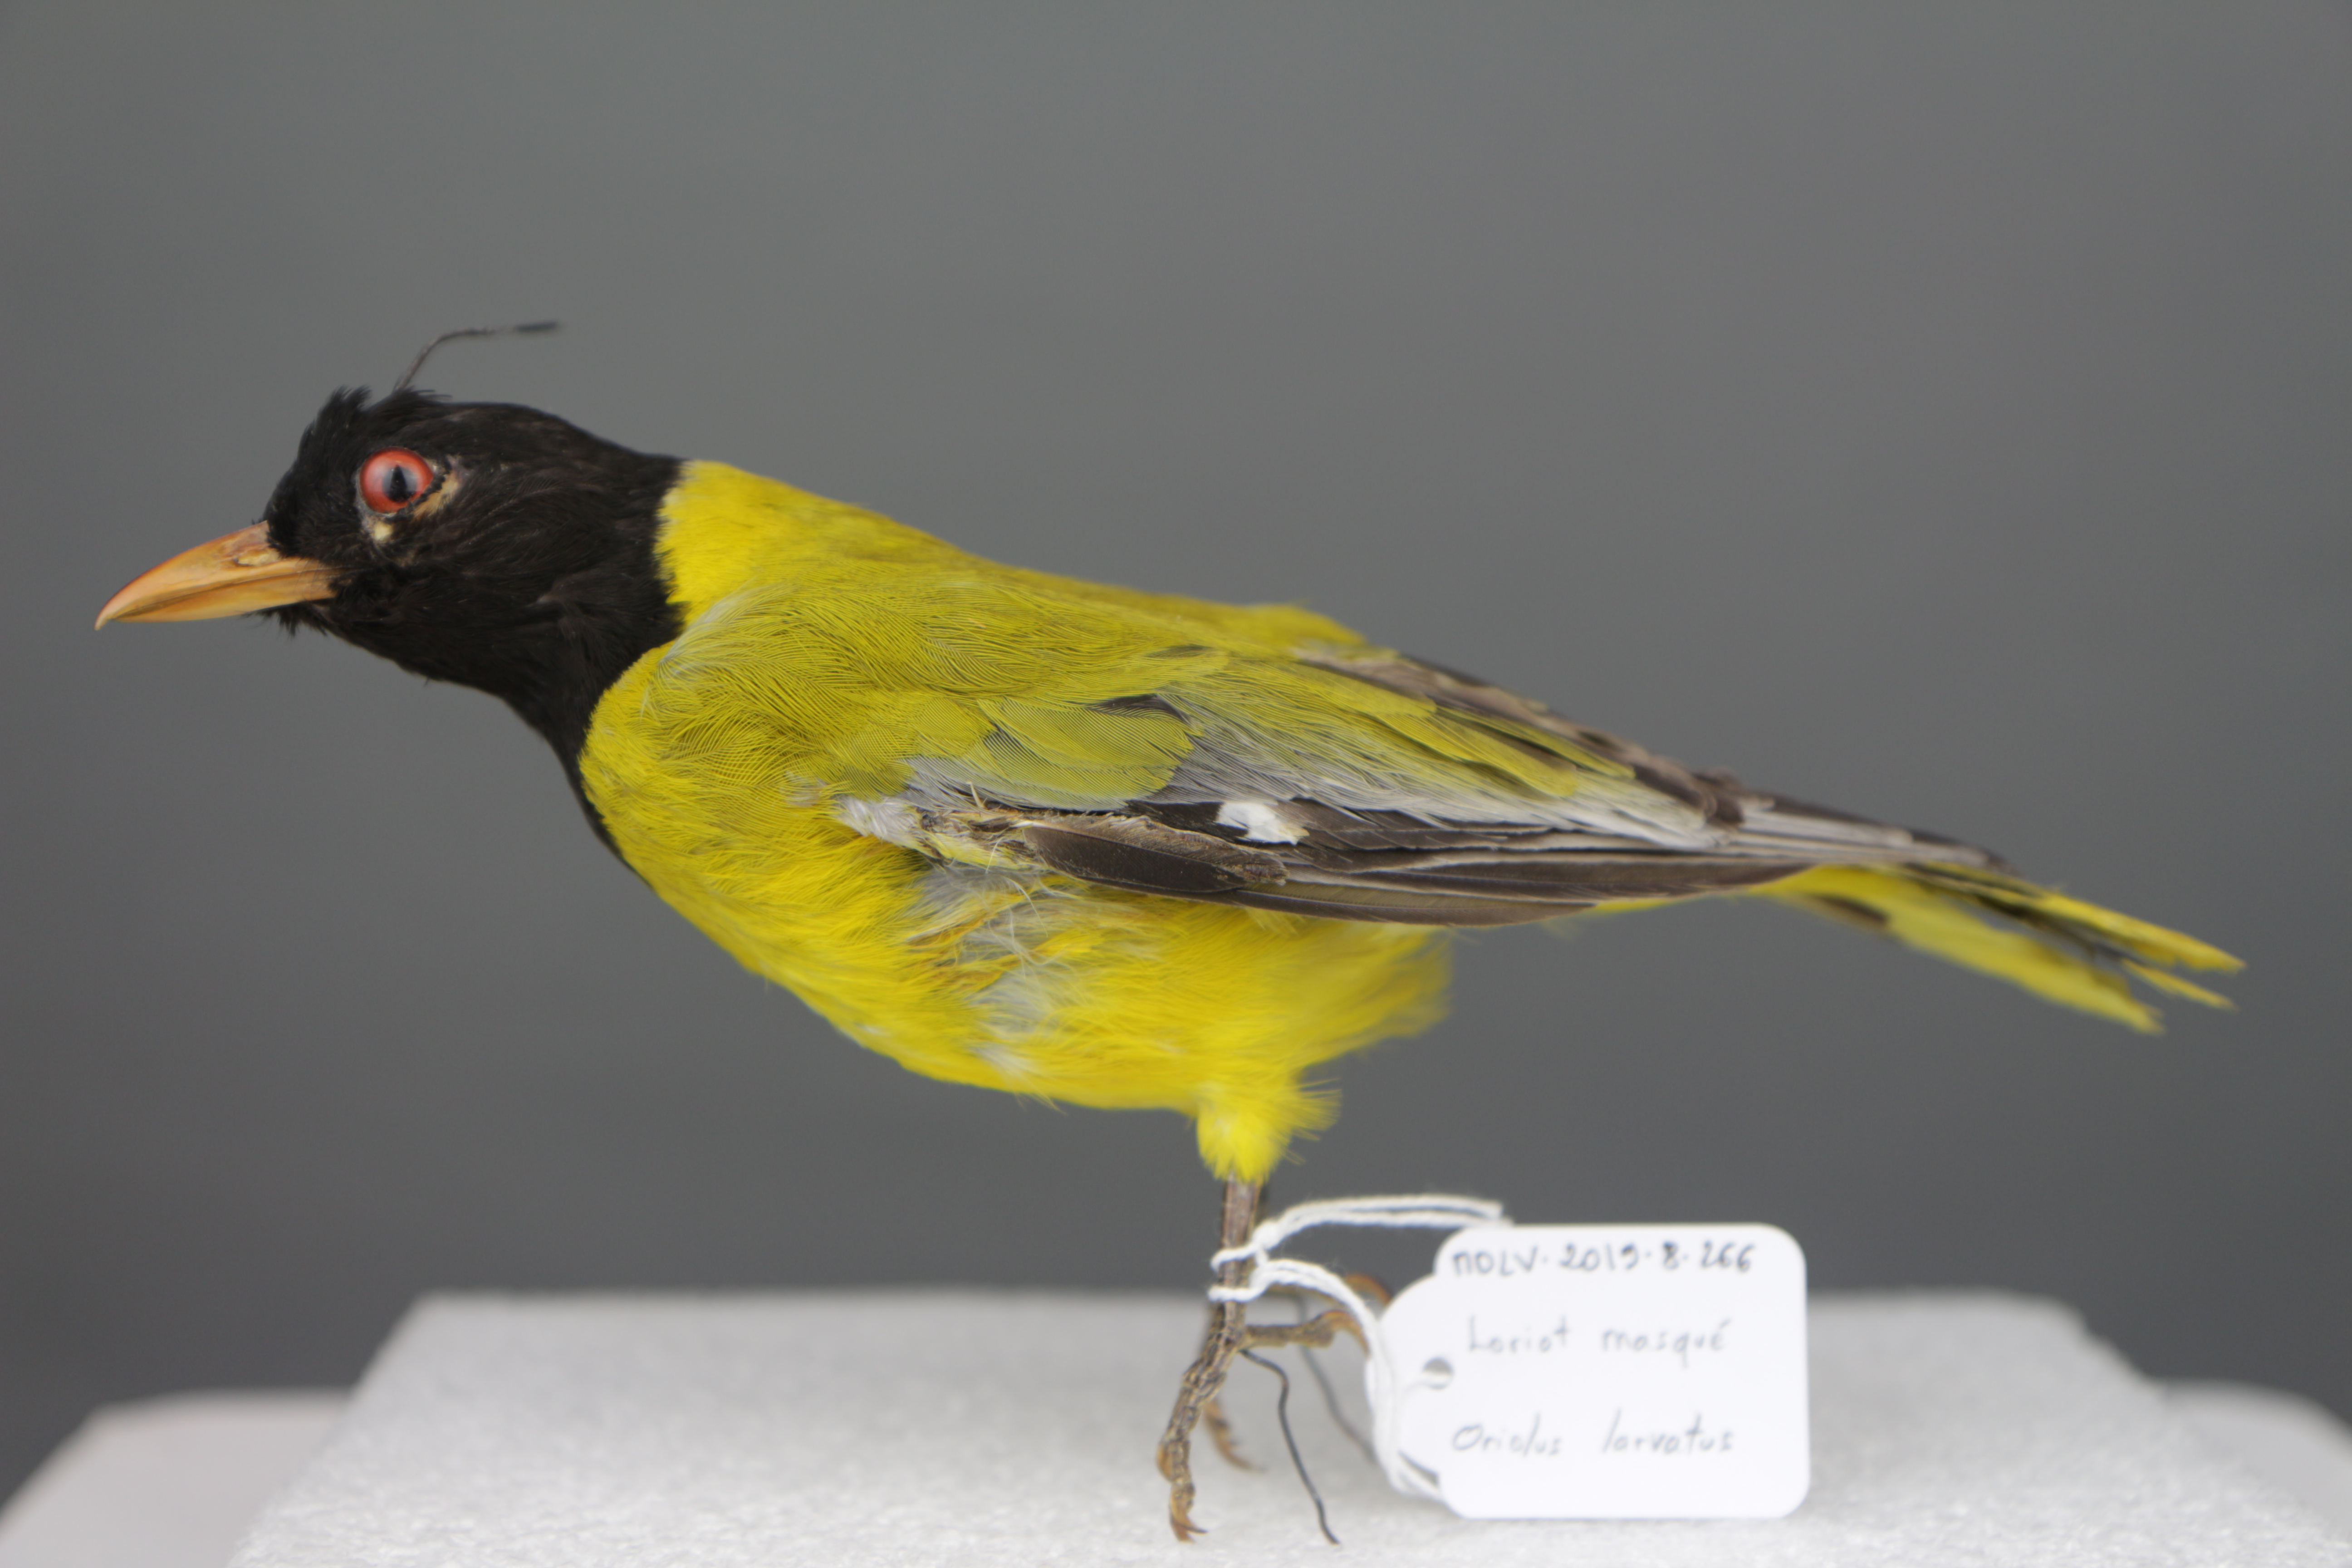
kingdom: Animalia
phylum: Chordata
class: Aves
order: Passeriformes
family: Oriolidae
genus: Oriolus
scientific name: Oriolus larvatus
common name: Black-headed oriole
